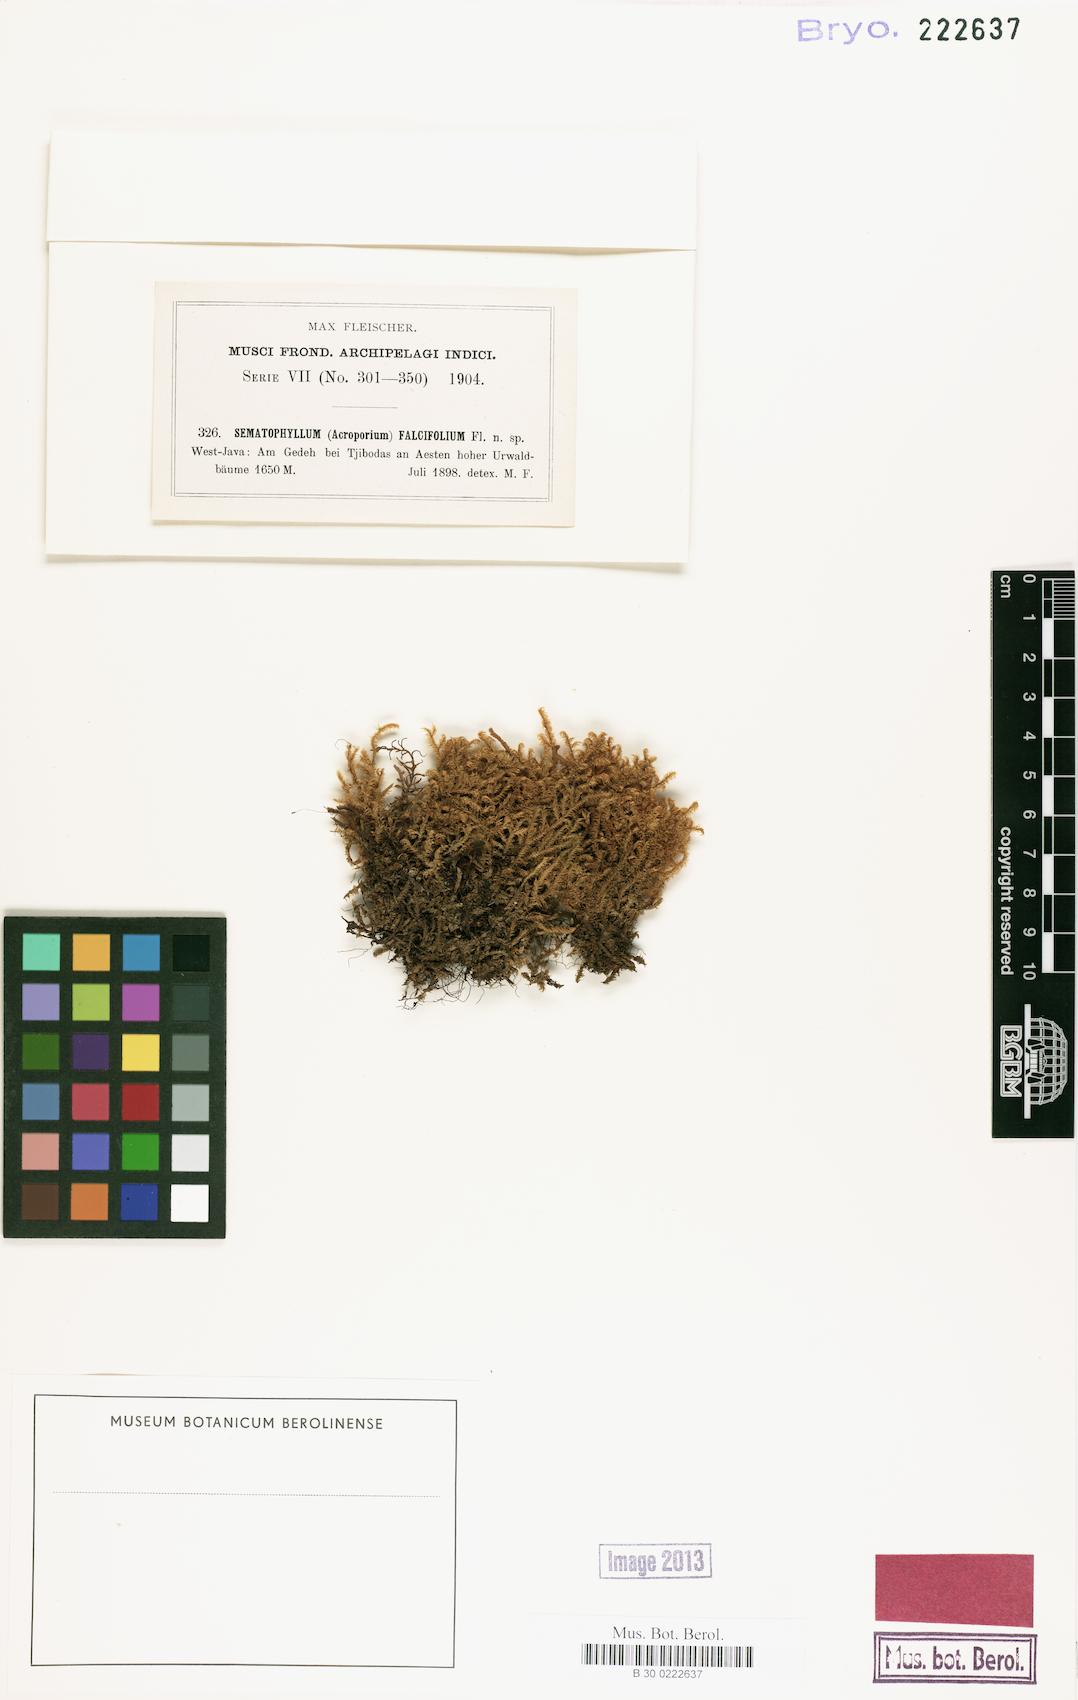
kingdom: Plantae
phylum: Bryophyta
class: Bryopsida
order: Hypnales
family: Sematophyllaceae
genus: Acroporium
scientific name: Acroporium strepsiphyllum
